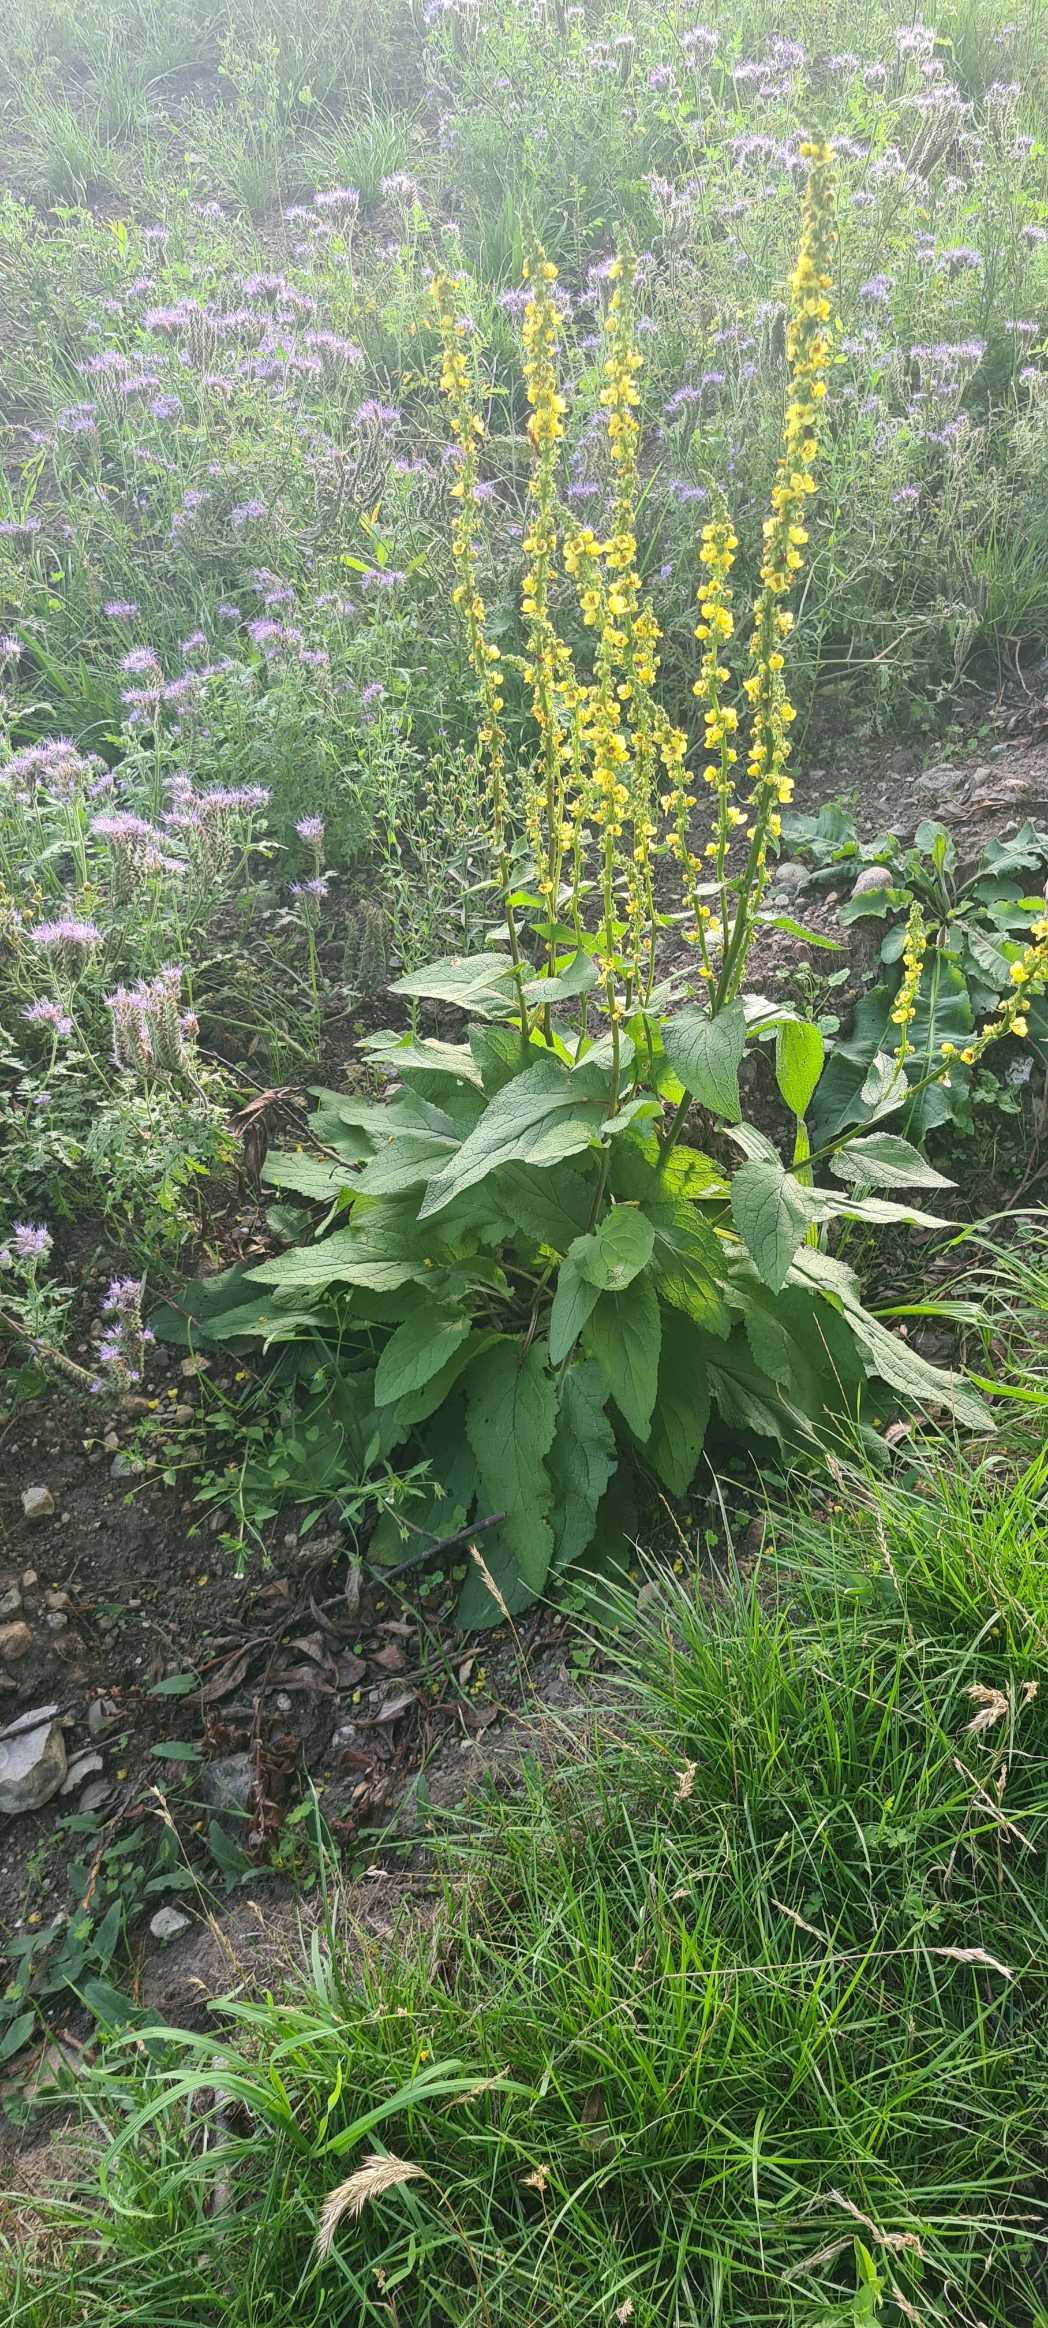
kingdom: Plantae
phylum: Tracheophyta
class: Magnoliopsida
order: Lamiales
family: Scrophulariaceae
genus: Verbascum
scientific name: Verbascum nigrum
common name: Mørk kongelys
